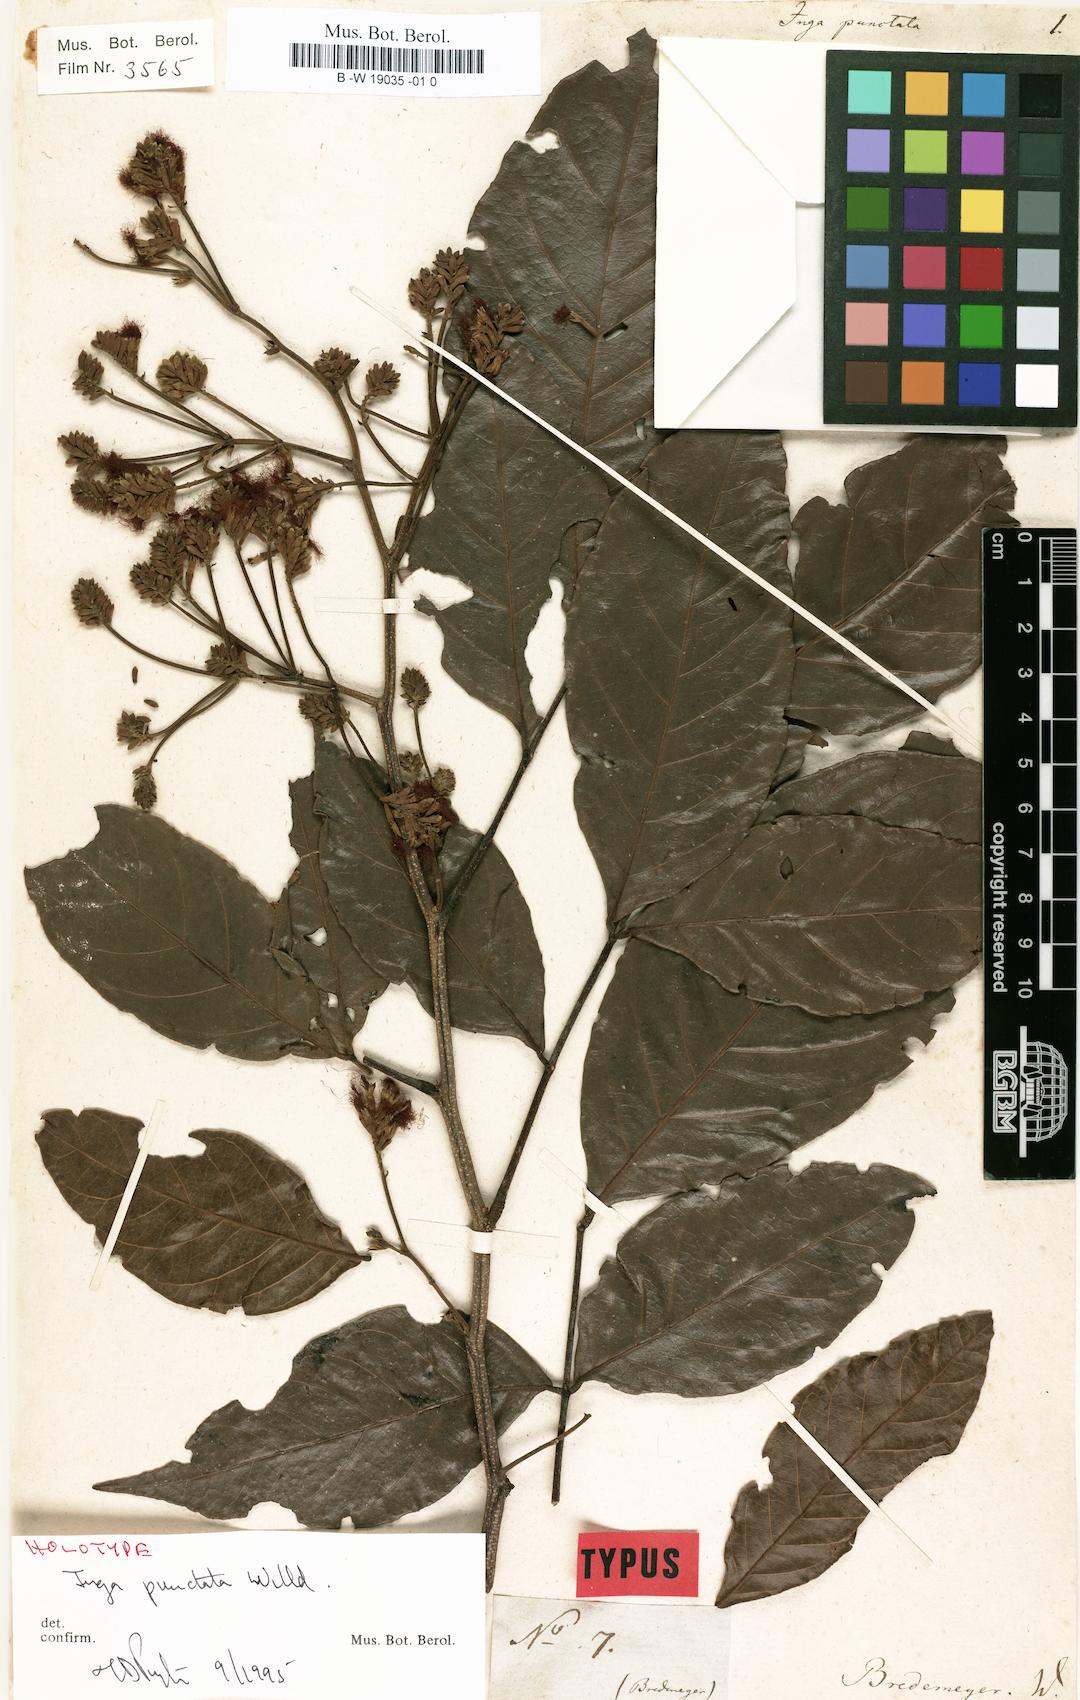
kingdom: Plantae
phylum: Tracheophyta
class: Magnoliopsida
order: Fabales
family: Fabaceae
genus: Inga
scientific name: Inga punctata
